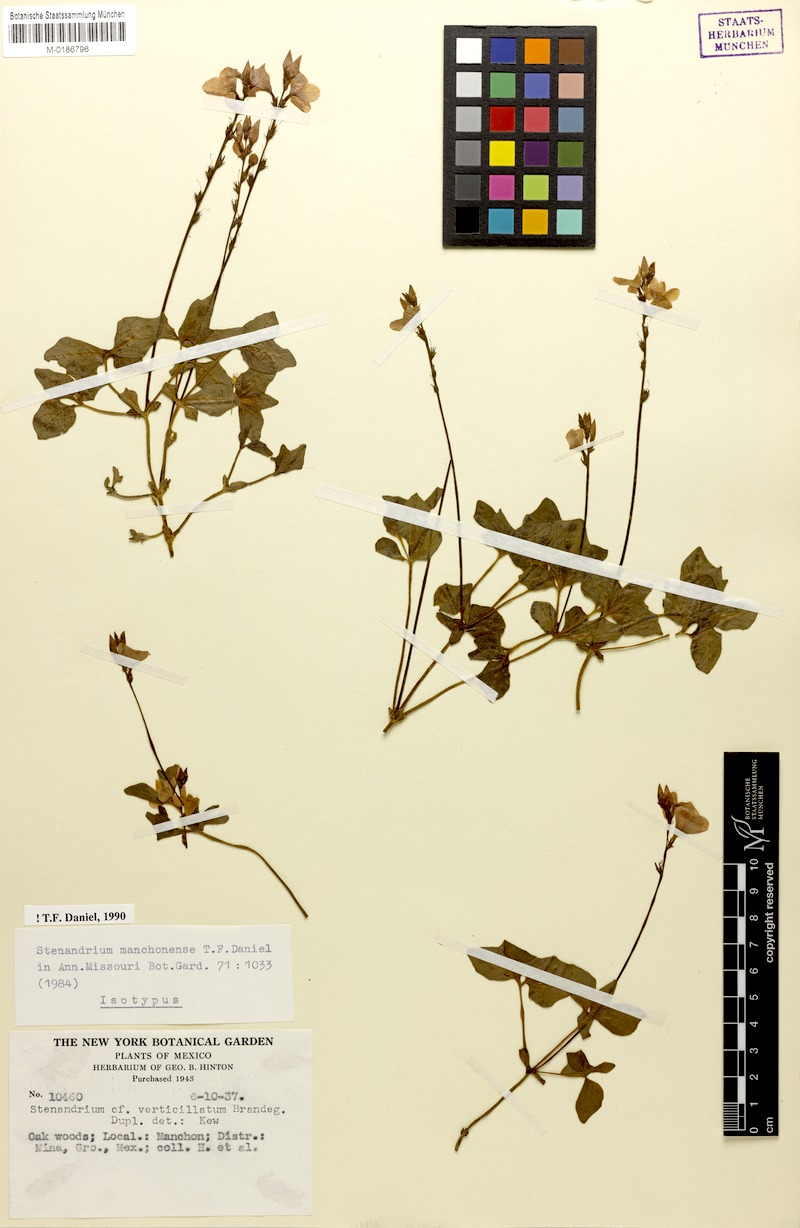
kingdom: Plantae
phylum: Tracheophyta
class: Magnoliopsida
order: Lamiales
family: Acanthaceae
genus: Stenandrium
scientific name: Stenandrium manchonense
